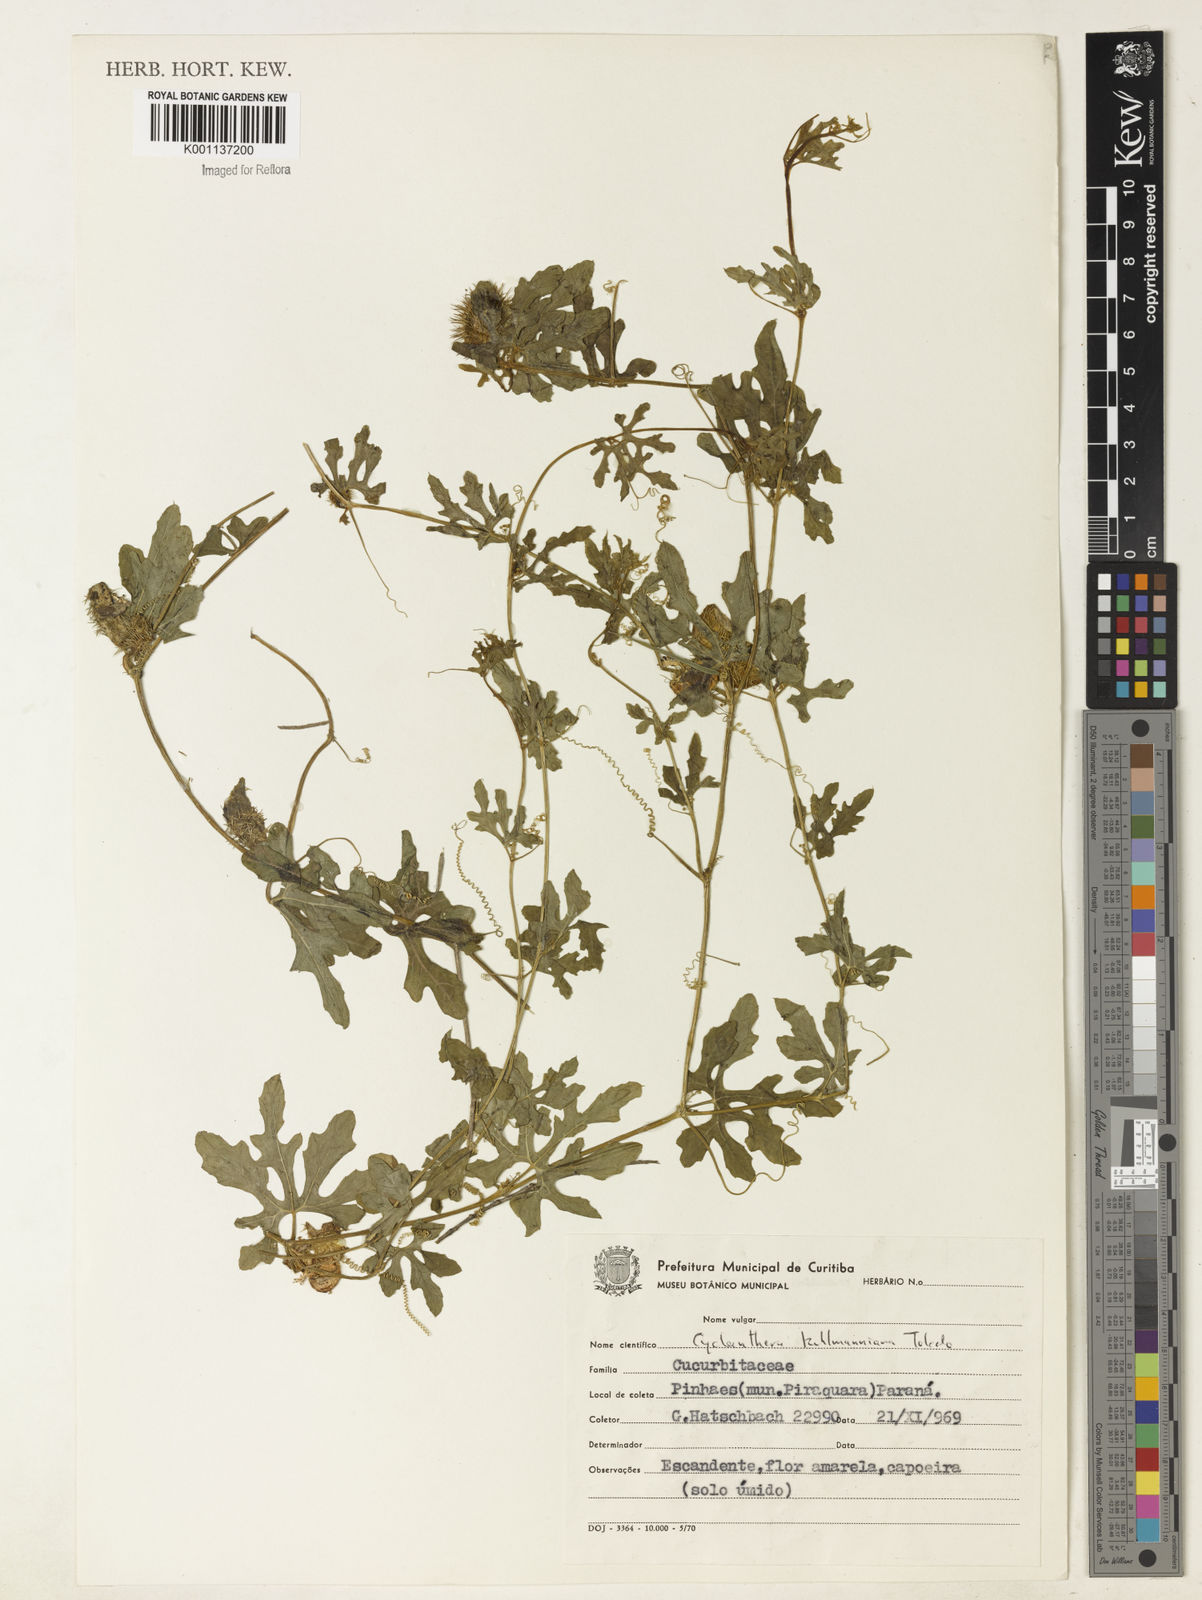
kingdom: Plantae
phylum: Tracheophyta
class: Magnoliopsida
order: Cucurbitales
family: Cucurbitaceae
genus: Cyclanthera
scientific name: Cyclanthera tenuifolia
